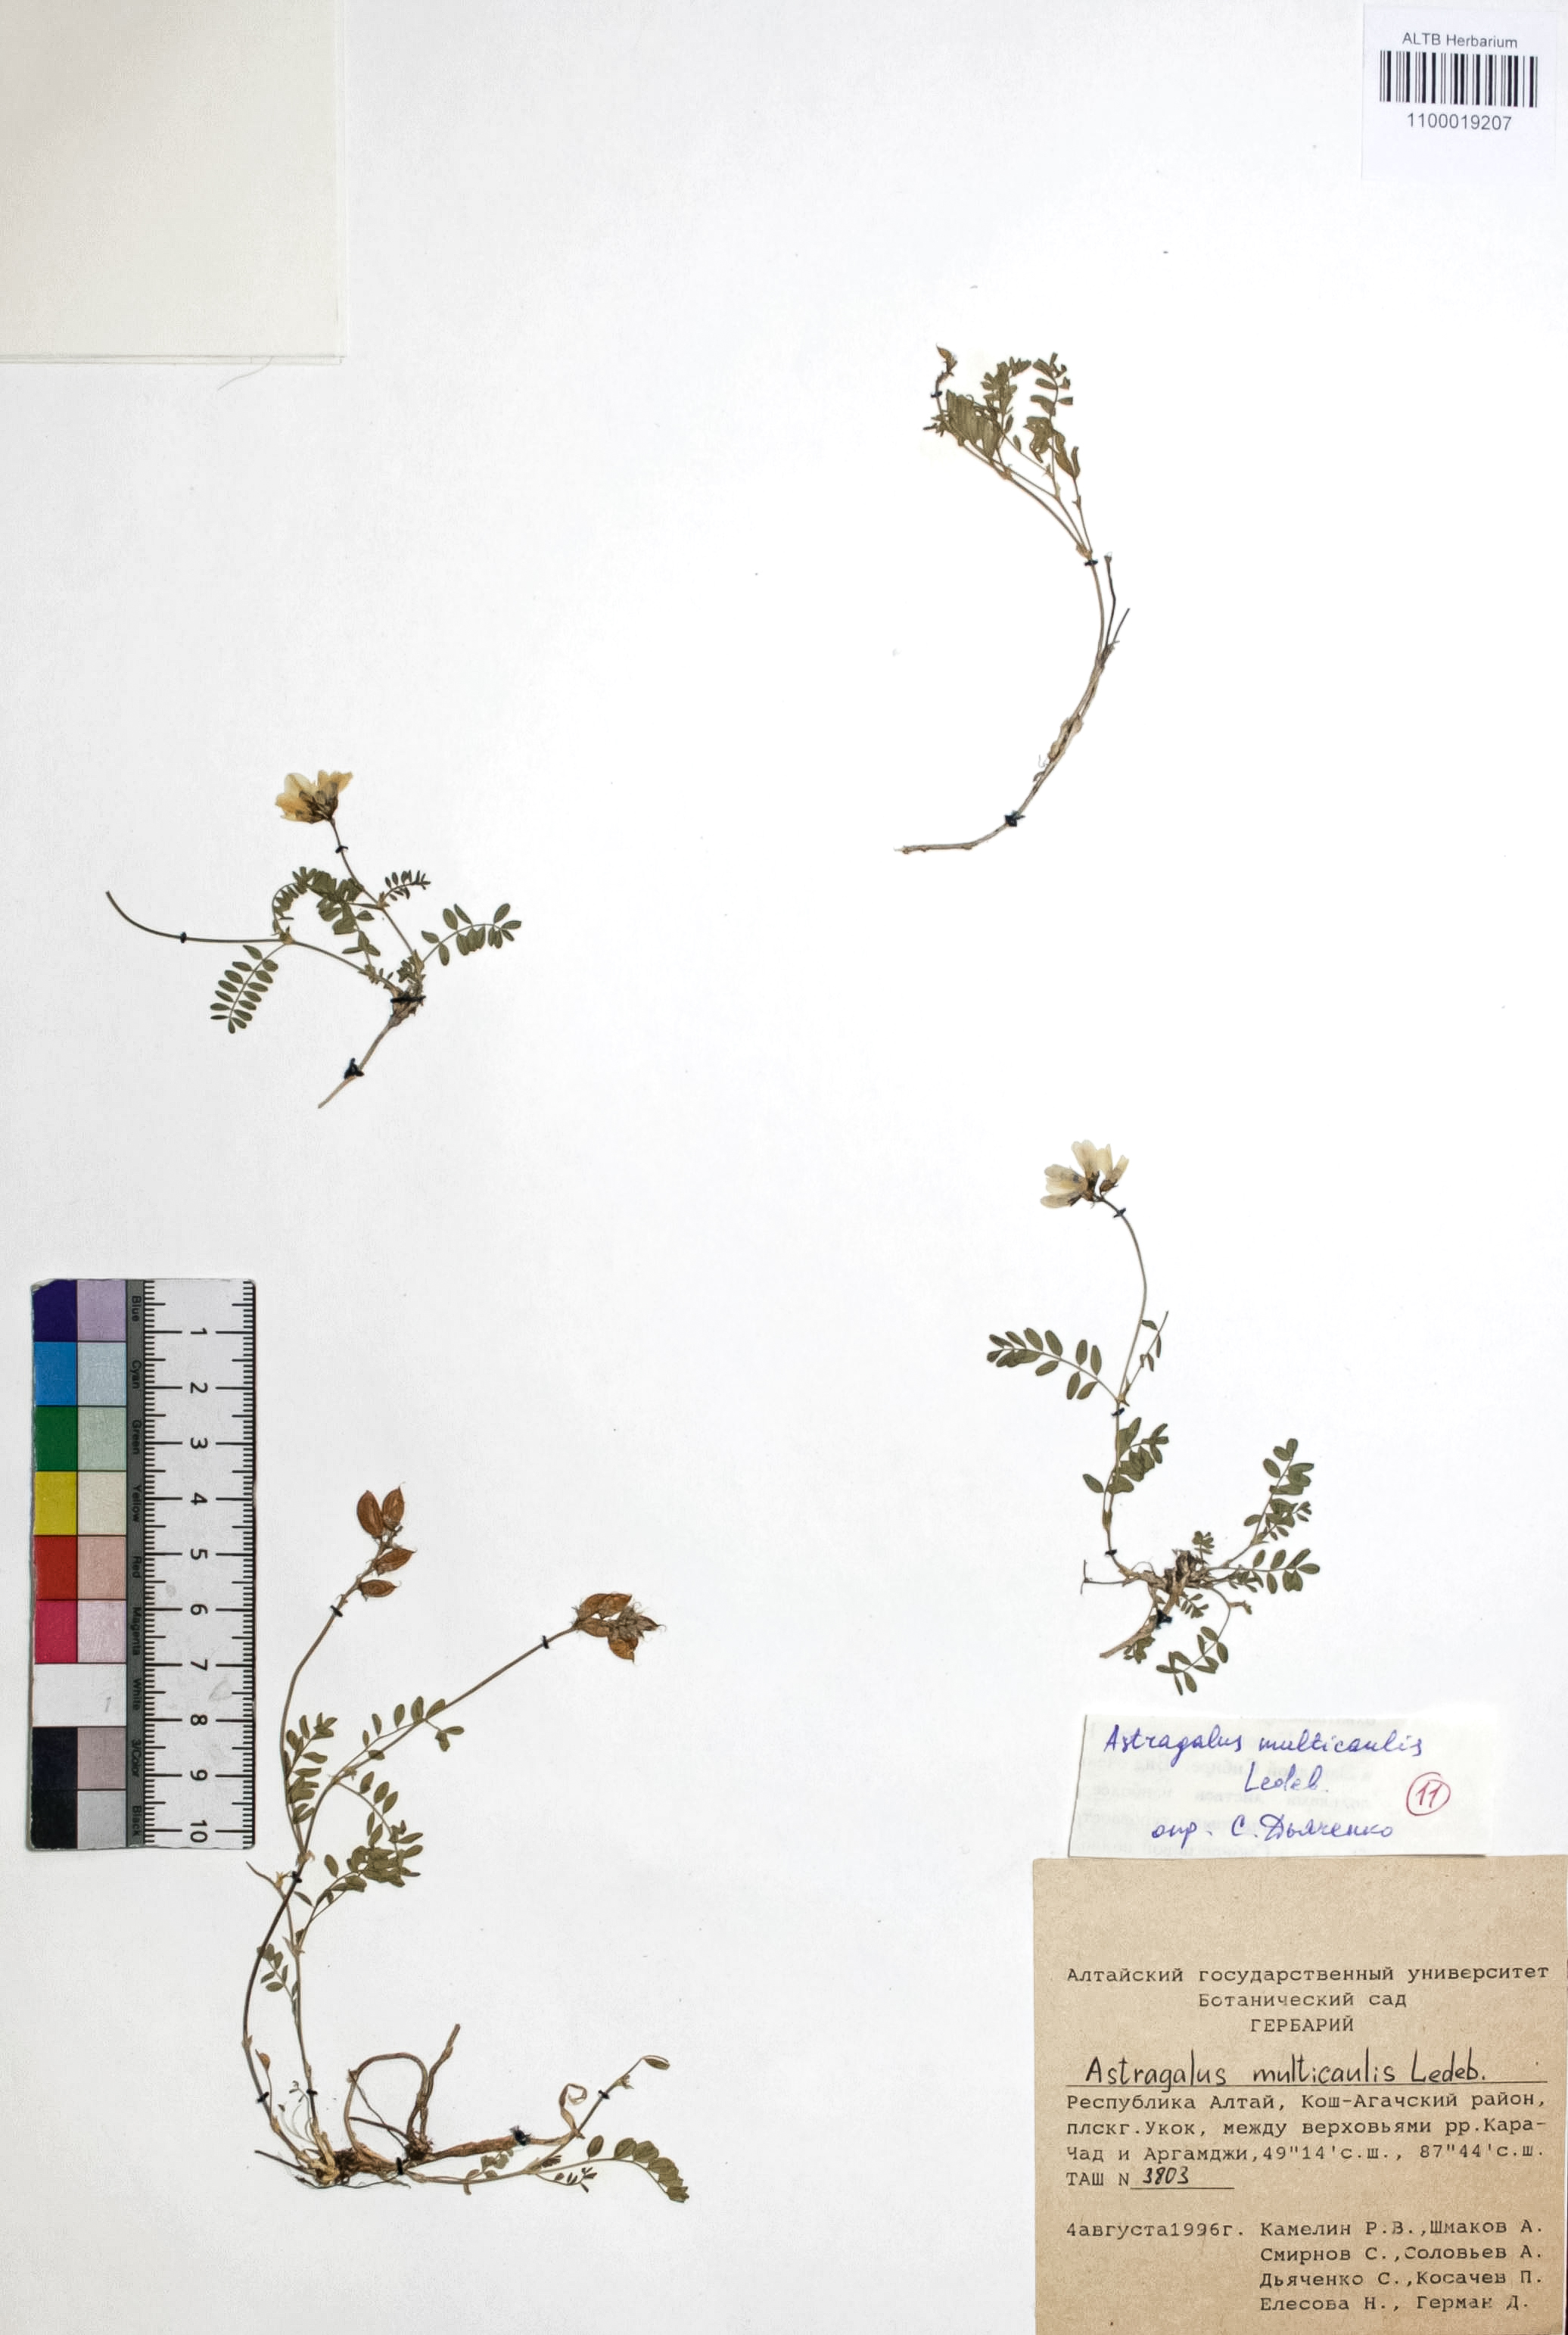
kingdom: Plantae
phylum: Tracheophyta
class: Magnoliopsida
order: Fabales
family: Fabaceae
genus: Astragalus
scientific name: Astragalus leptostachys
